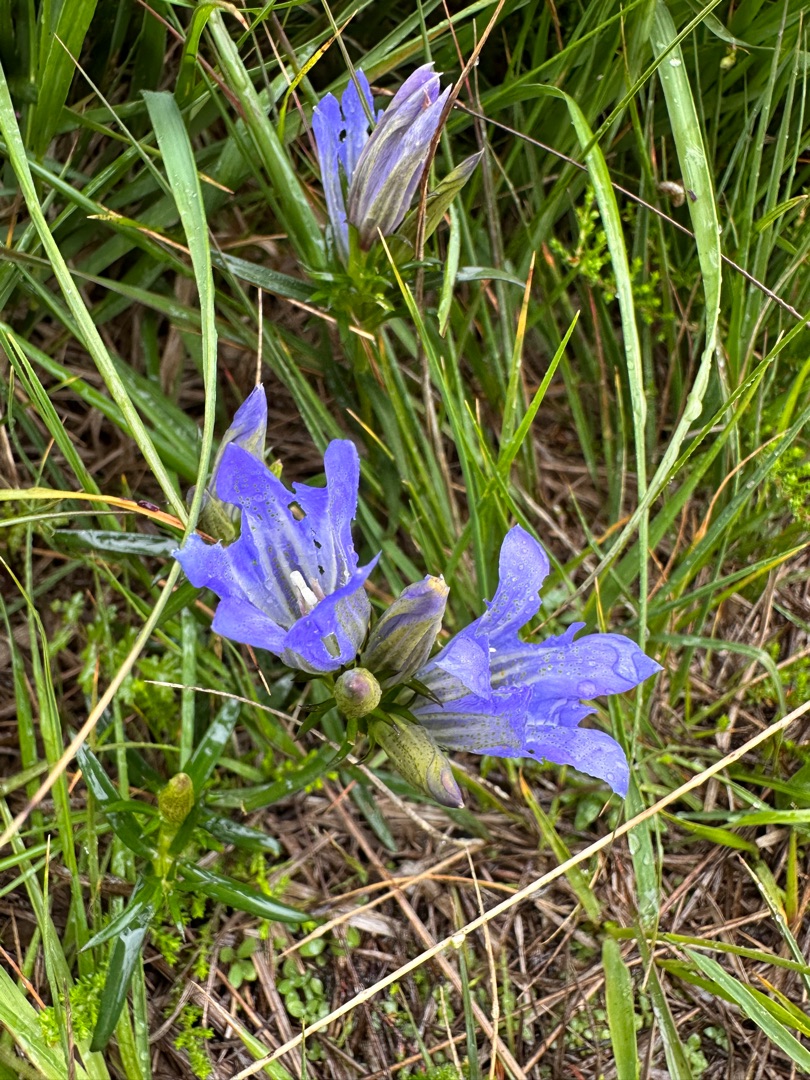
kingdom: Plantae
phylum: Tracheophyta
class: Magnoliopsida
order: Gentianales
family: Gentianaceae
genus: Gentiana
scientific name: Gentiana pneumonanthe
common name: Klokke-ensian
